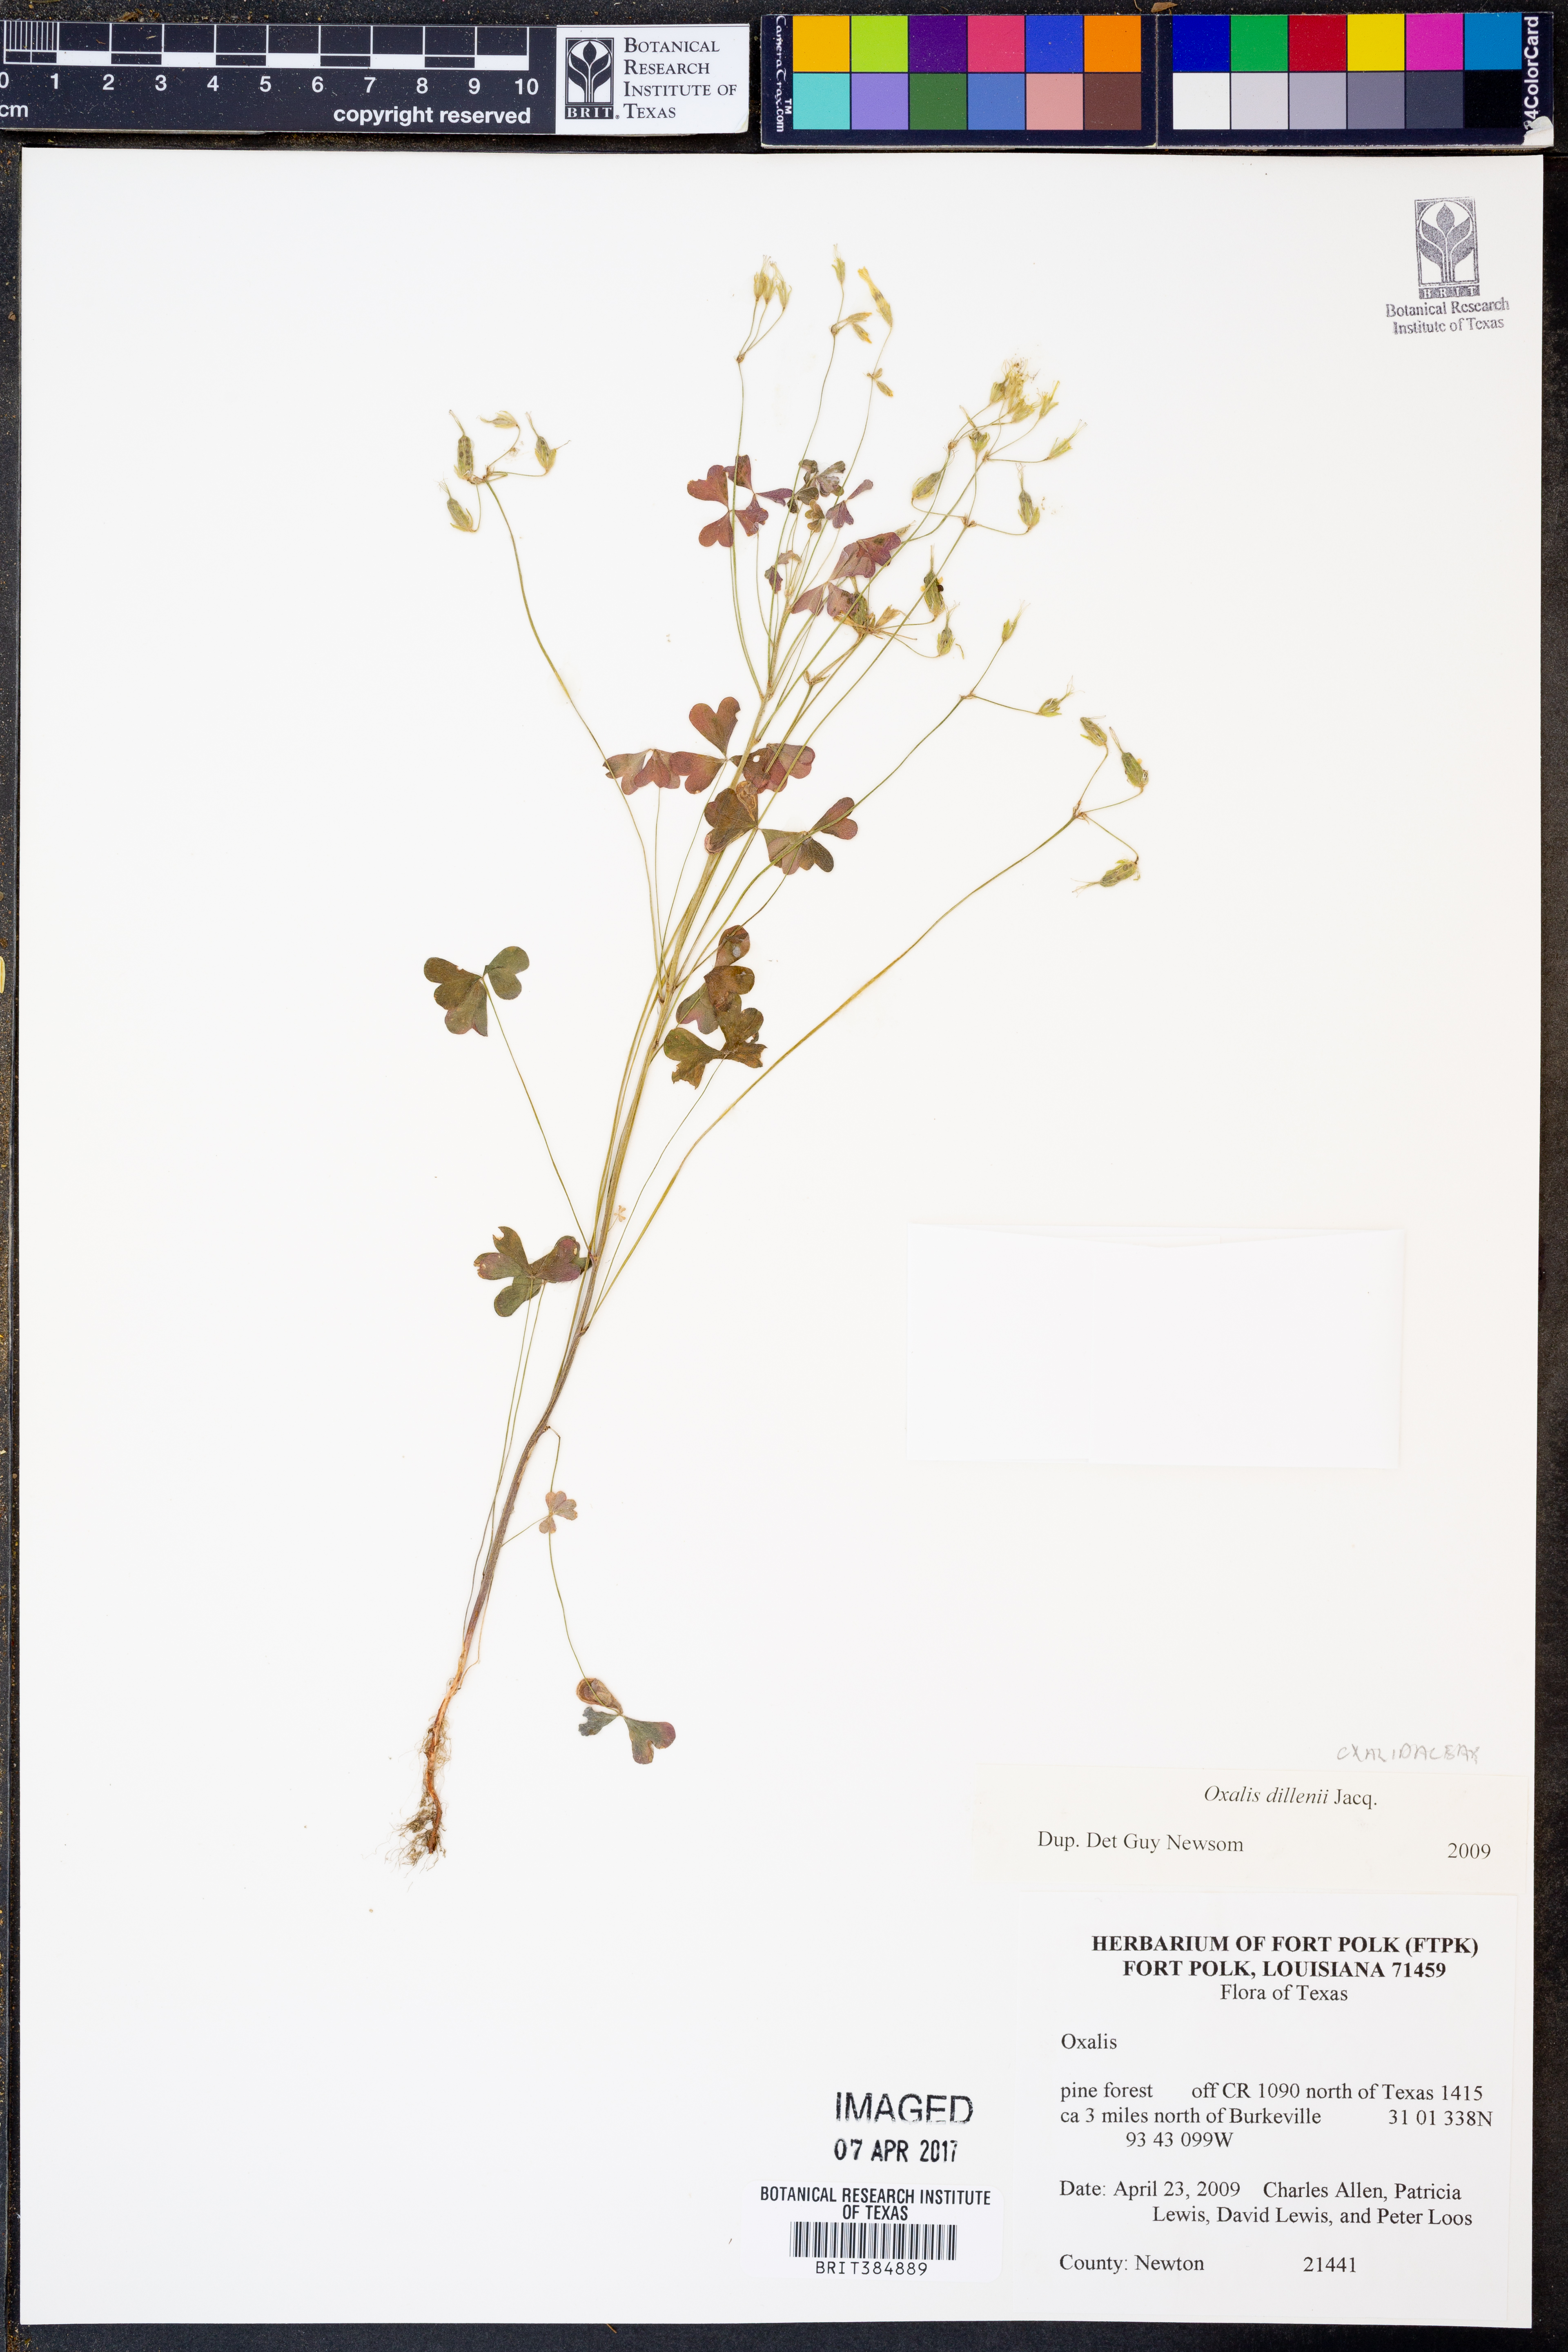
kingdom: Plantae
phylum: Tracheophyta
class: Magnoliopsida
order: Oxalidales
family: Oxalidaceae
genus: Oxalis
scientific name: Oxalis dillenii
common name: Sussex yellow-sorrel
